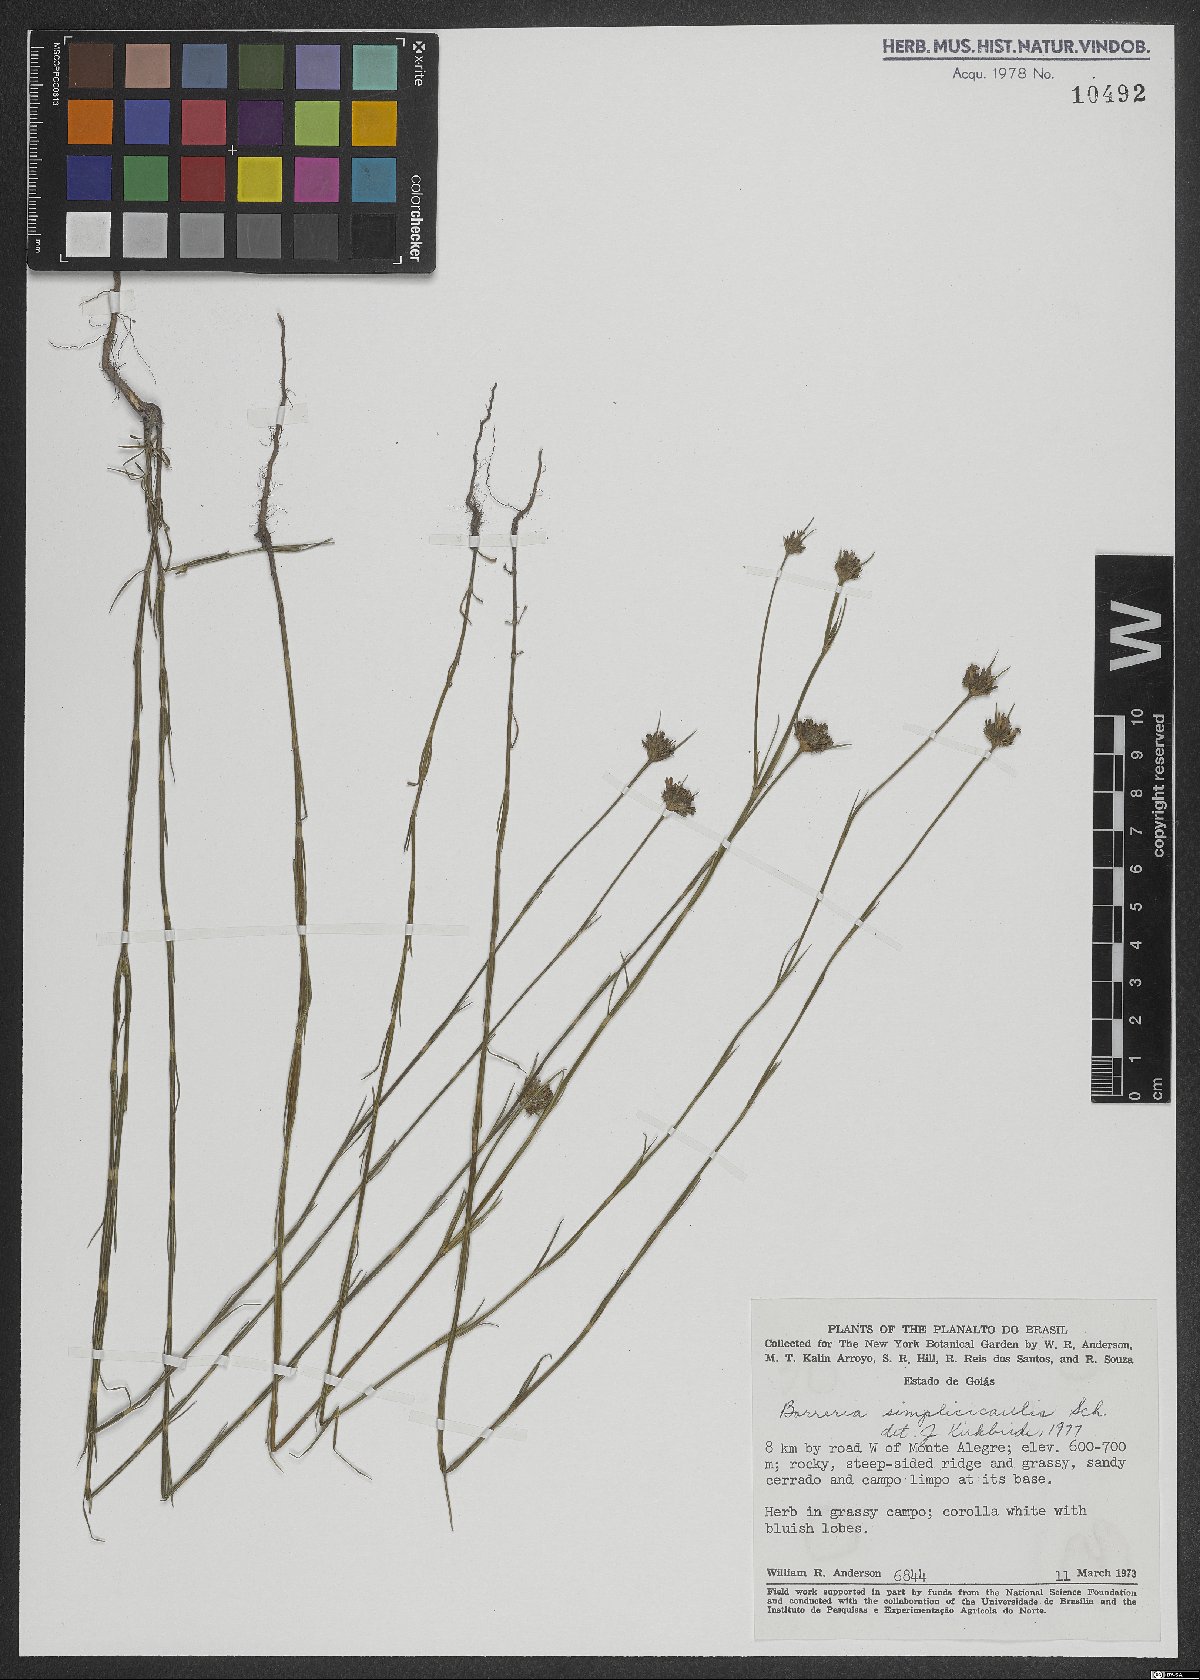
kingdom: Plantae
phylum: Tracheophyta
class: Magnoliopsida
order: Gentianales
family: Rubiaceae
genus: Spermacoce
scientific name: Spermacoce simplicicaulis
